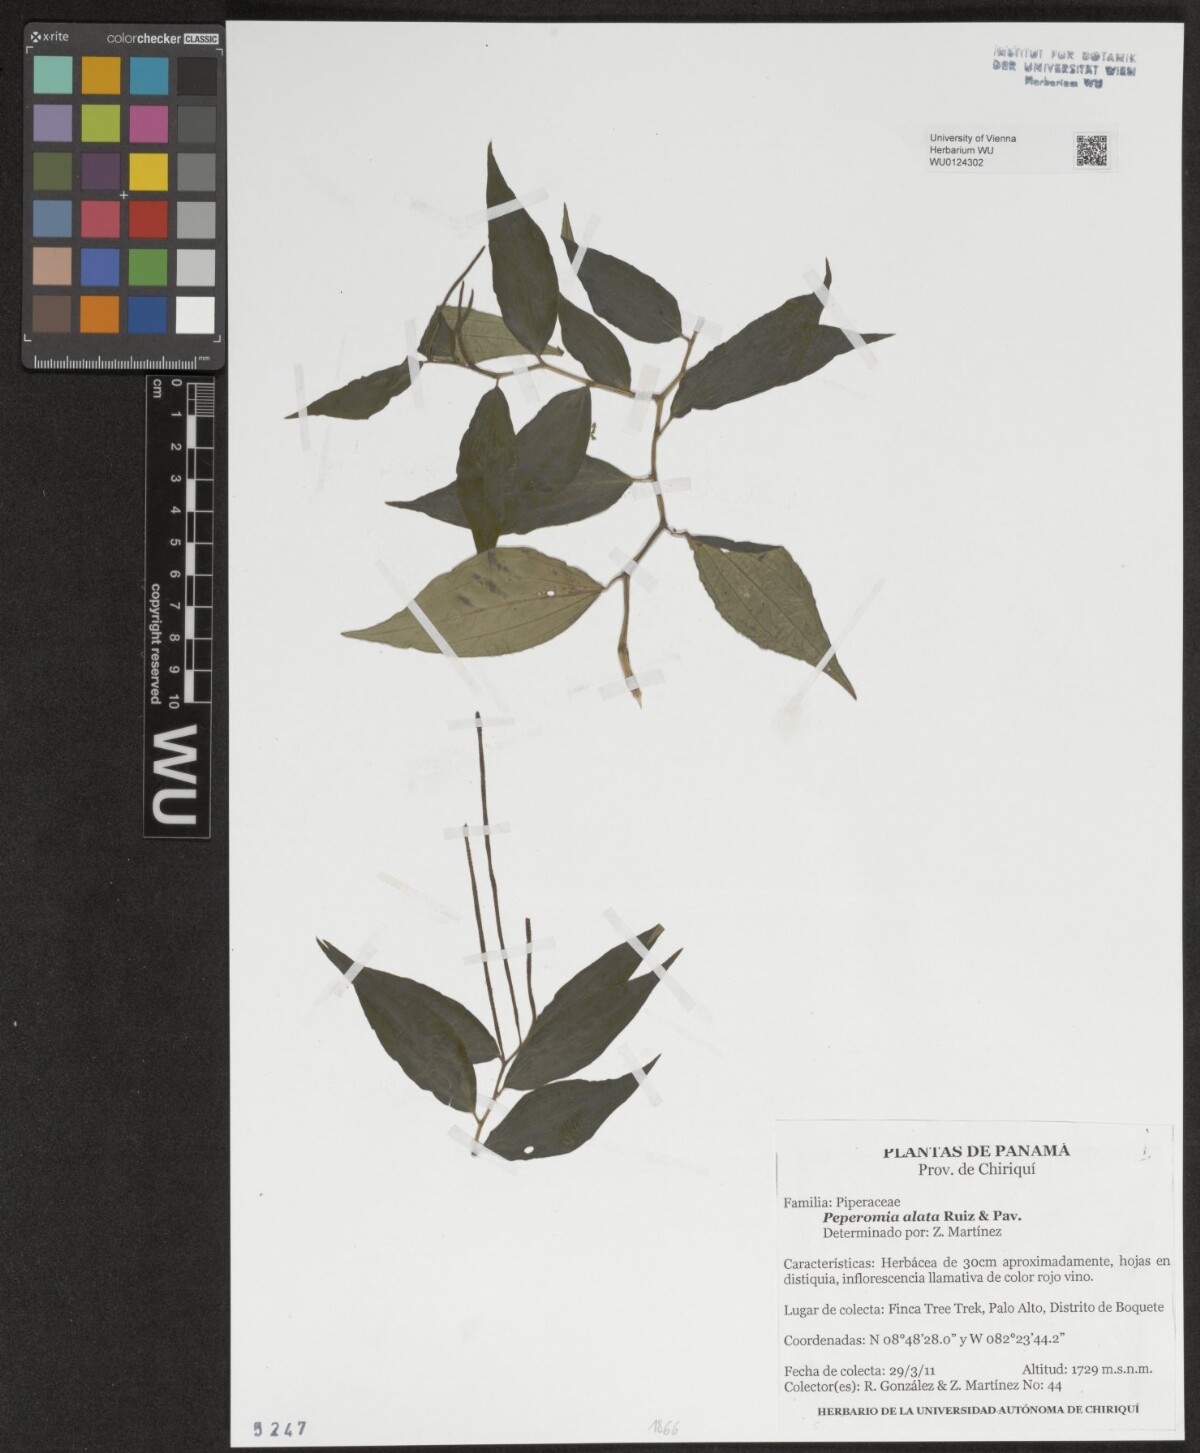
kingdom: Plantae
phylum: Tracheophyta
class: Magnoliopsida
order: Piperales
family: Piperaceae
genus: Peperomia
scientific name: Peperomia alata
